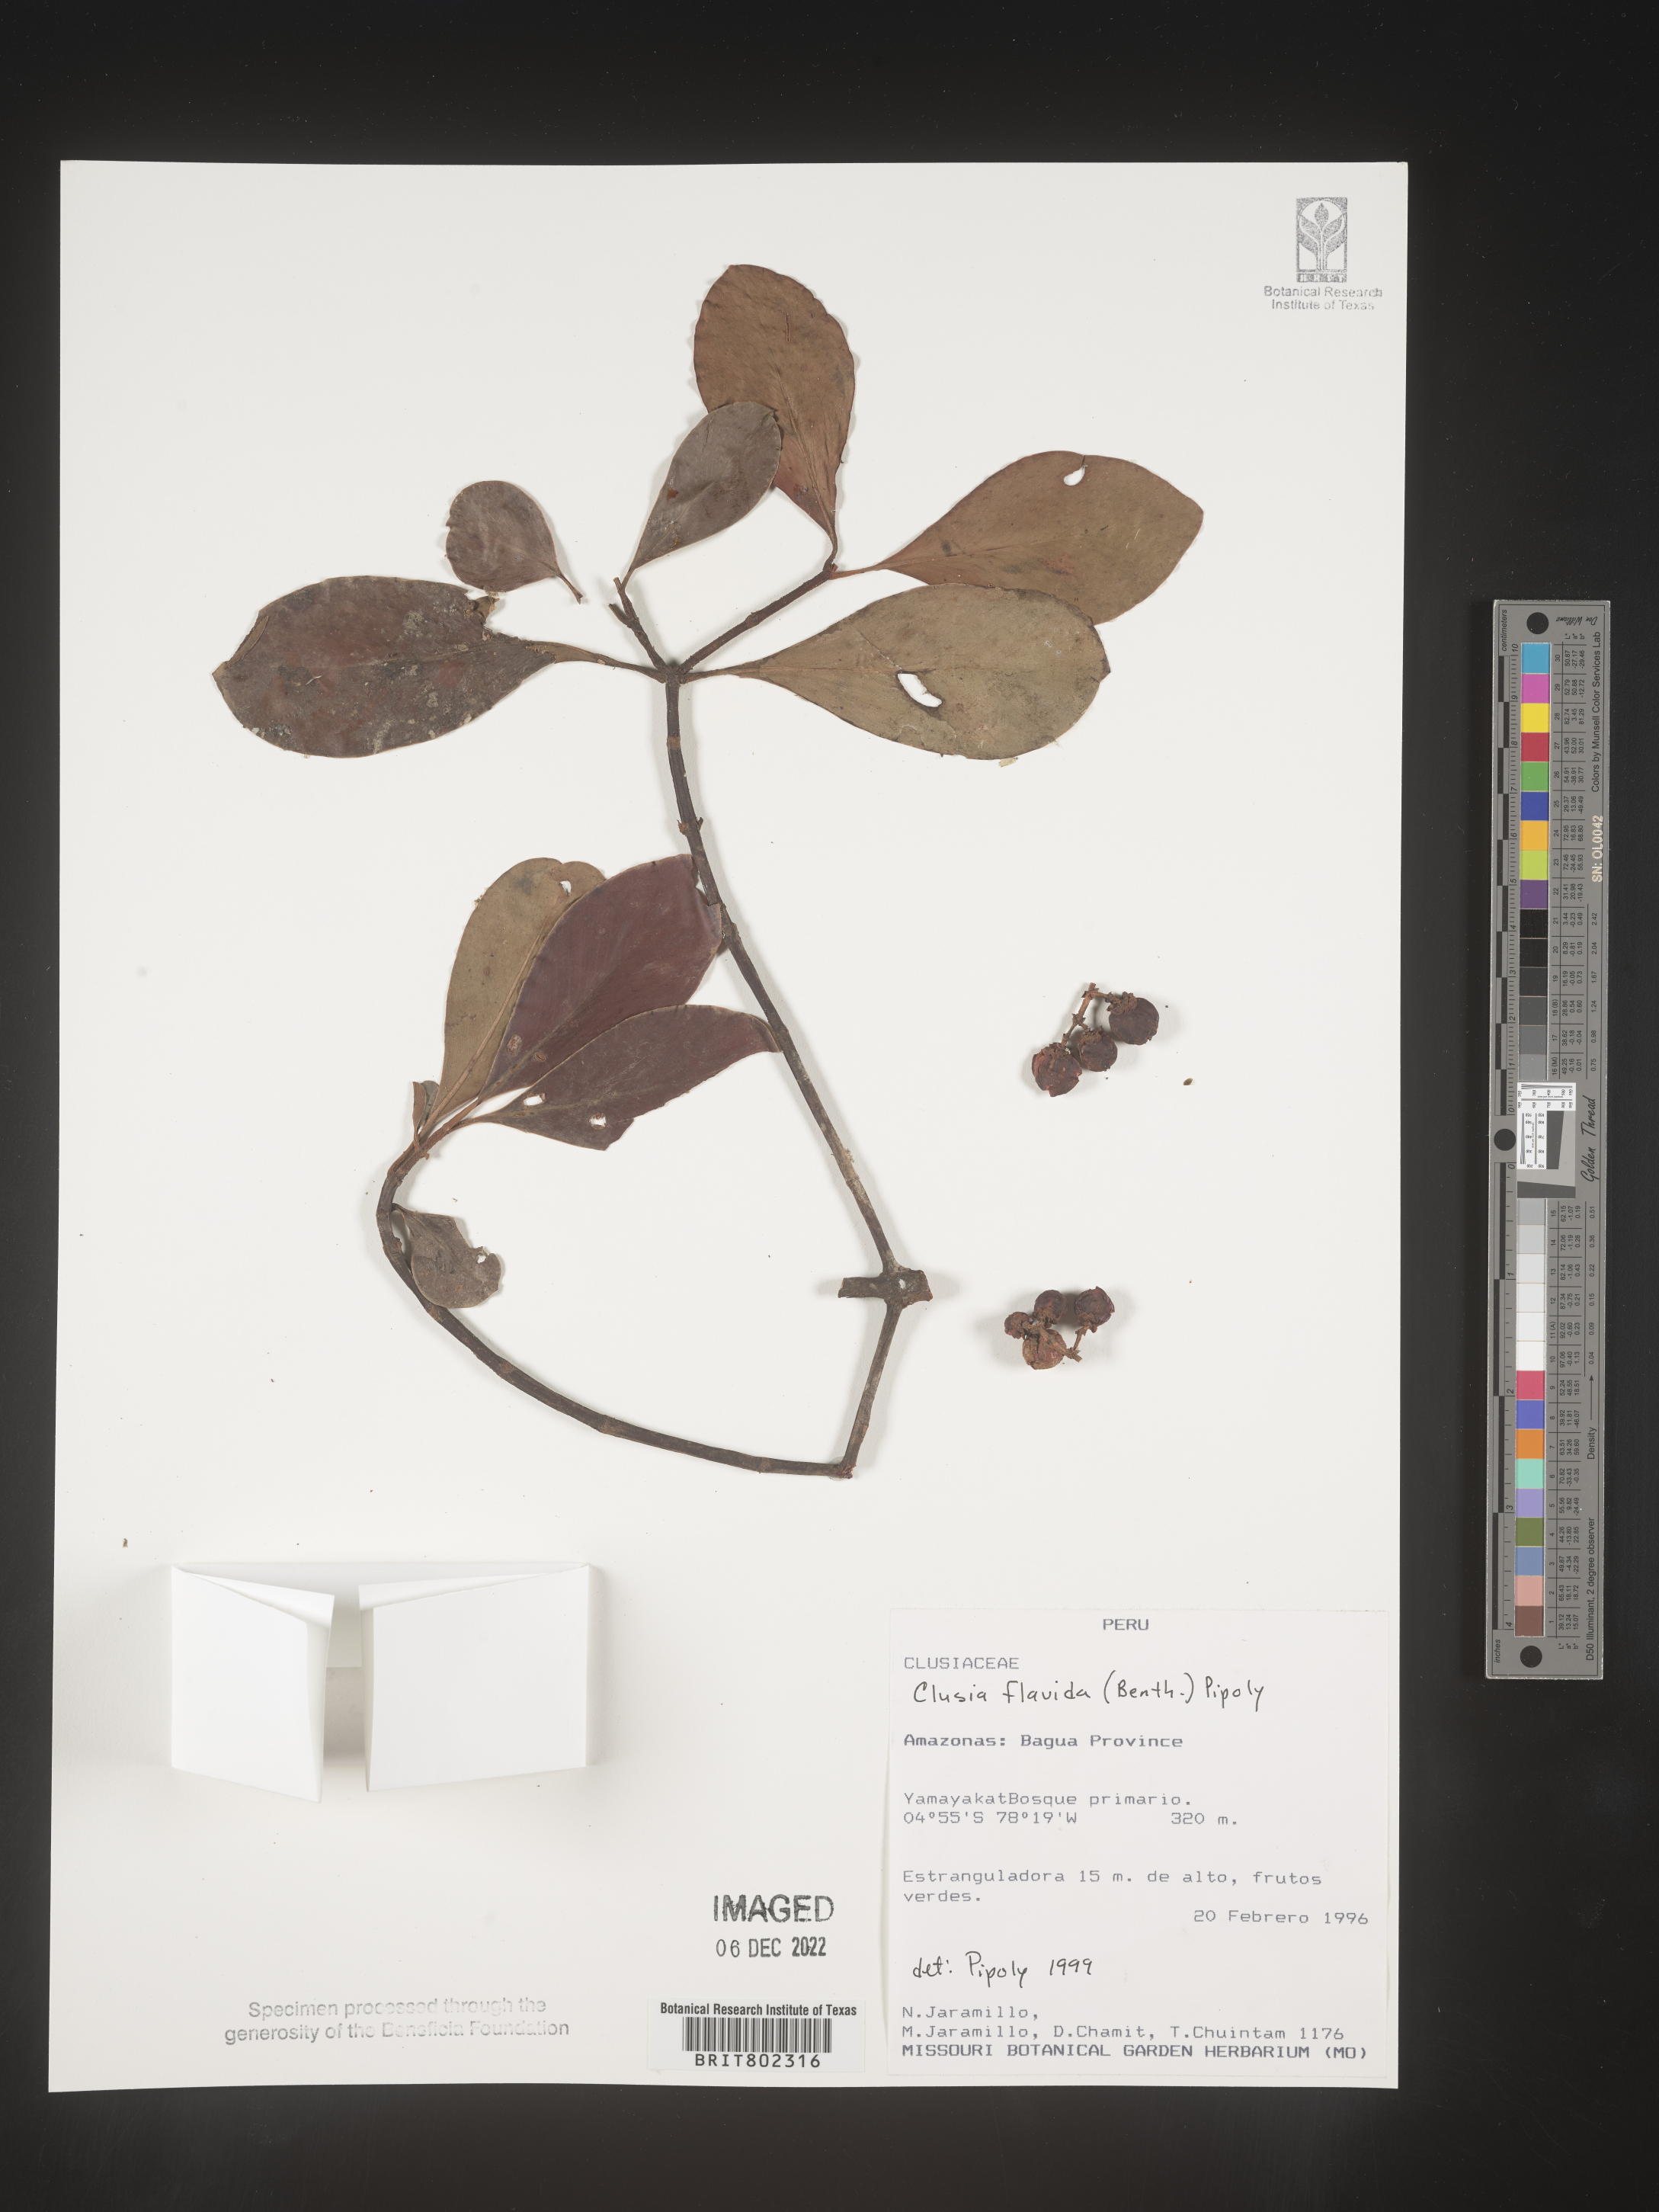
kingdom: Plantae
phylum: Tracheophyta
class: Magnoliopsida
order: Malpighiales
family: Clusiaceae
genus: Clusia
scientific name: Clusia flavida
